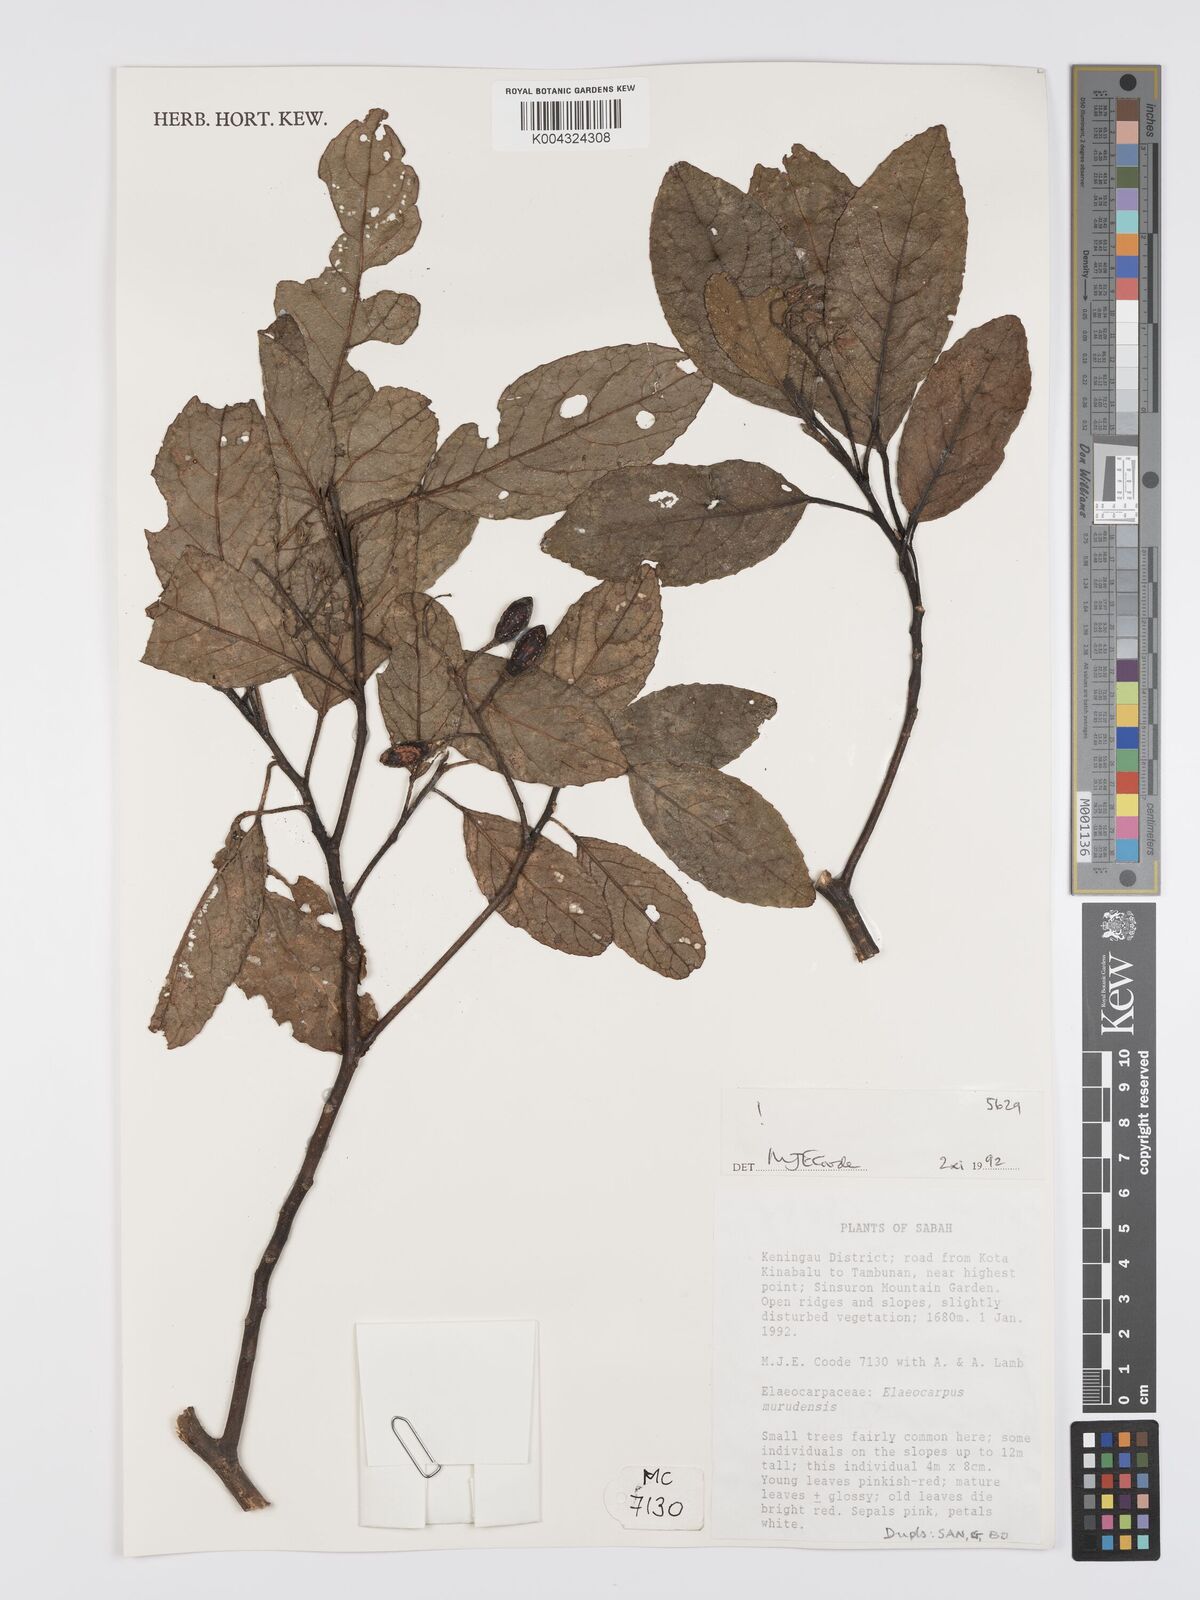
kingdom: Plantae
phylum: Tracheophyta
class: Magnoliopsida
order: Oxalidales
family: Elaeocarpaceae
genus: Elaeocarpus
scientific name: Elaeocarpus murudensis
